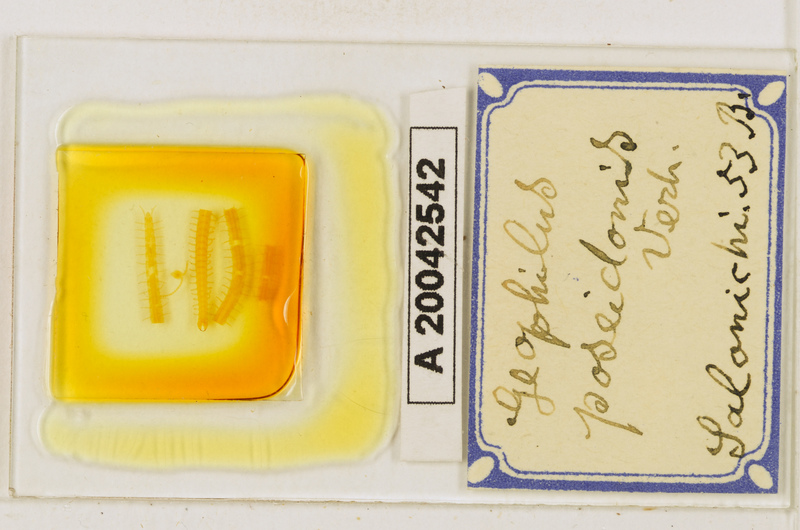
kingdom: Animalia
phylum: Arthropoda
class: Chilopoda
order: Geophilomorpha
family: Geophilidae
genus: Tuoba
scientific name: Tuoba poseidonis
